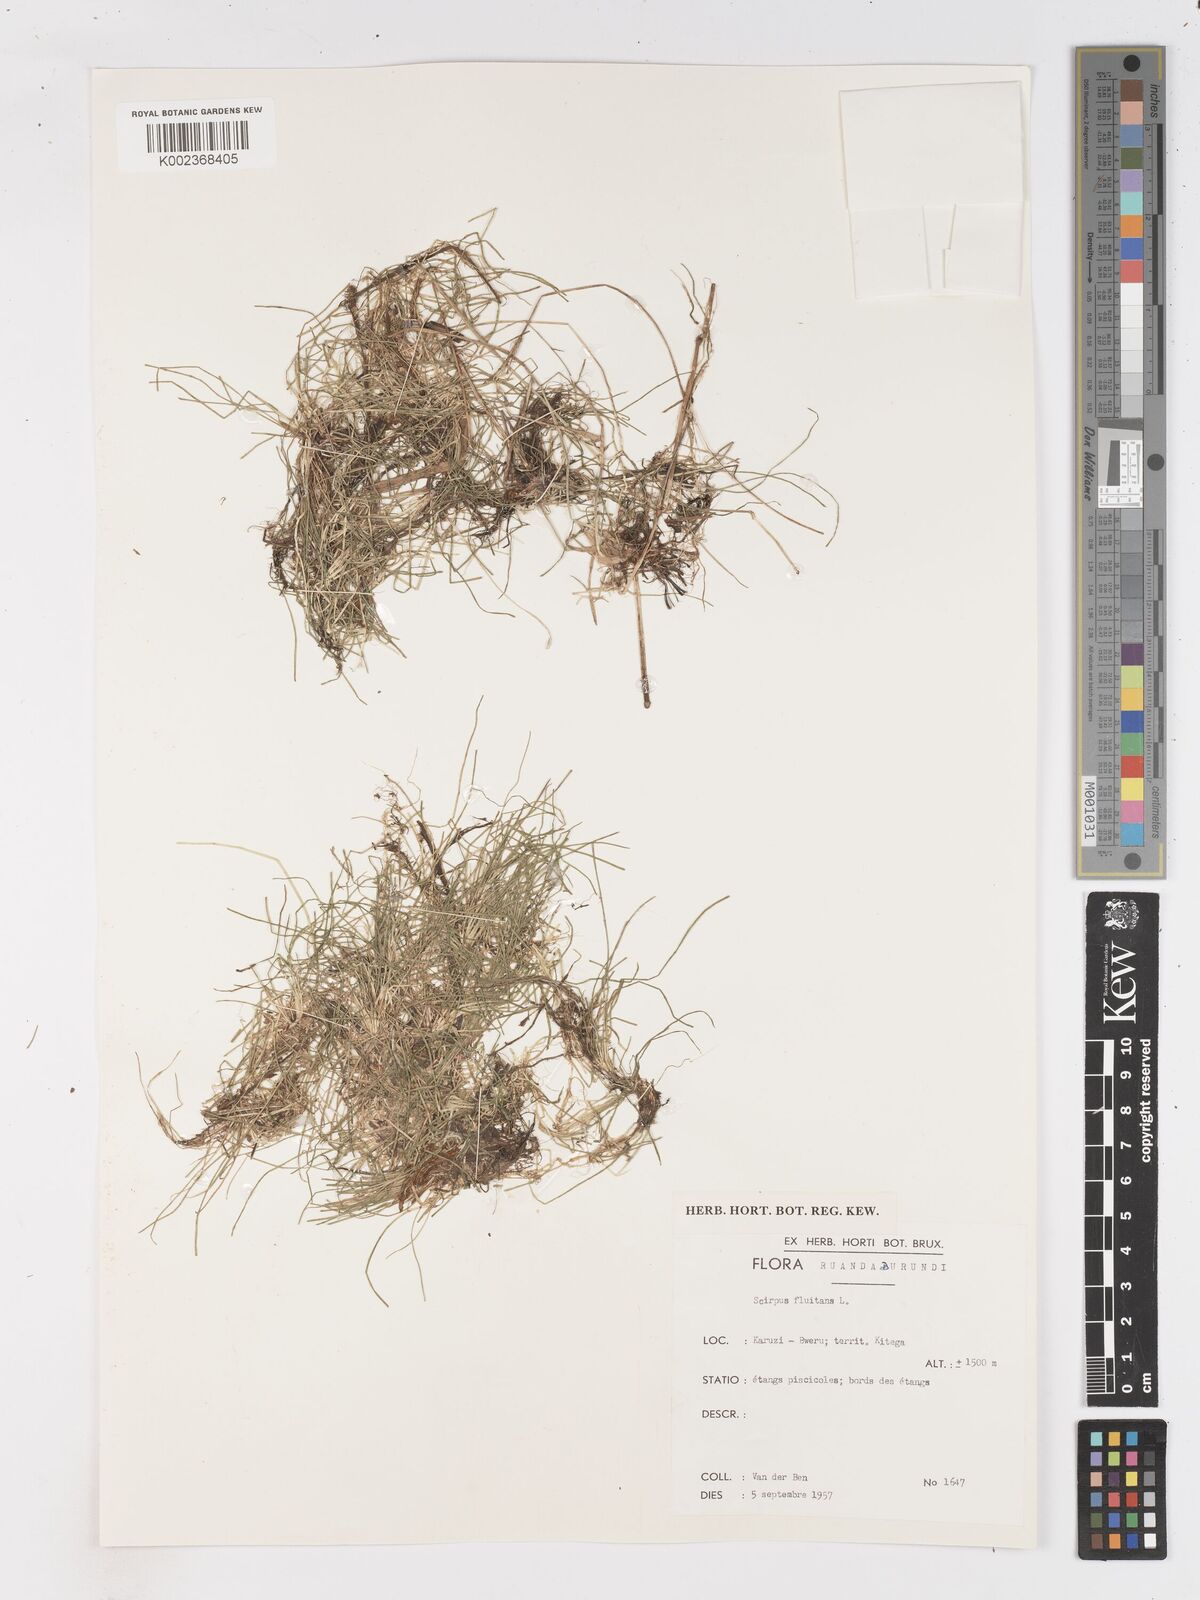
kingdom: Plantae
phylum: Tracheophyta
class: Liliopsida
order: Poales
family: Cyperaceae
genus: Isolepis
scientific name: Isolepis fluitans
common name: Floating club-rush
